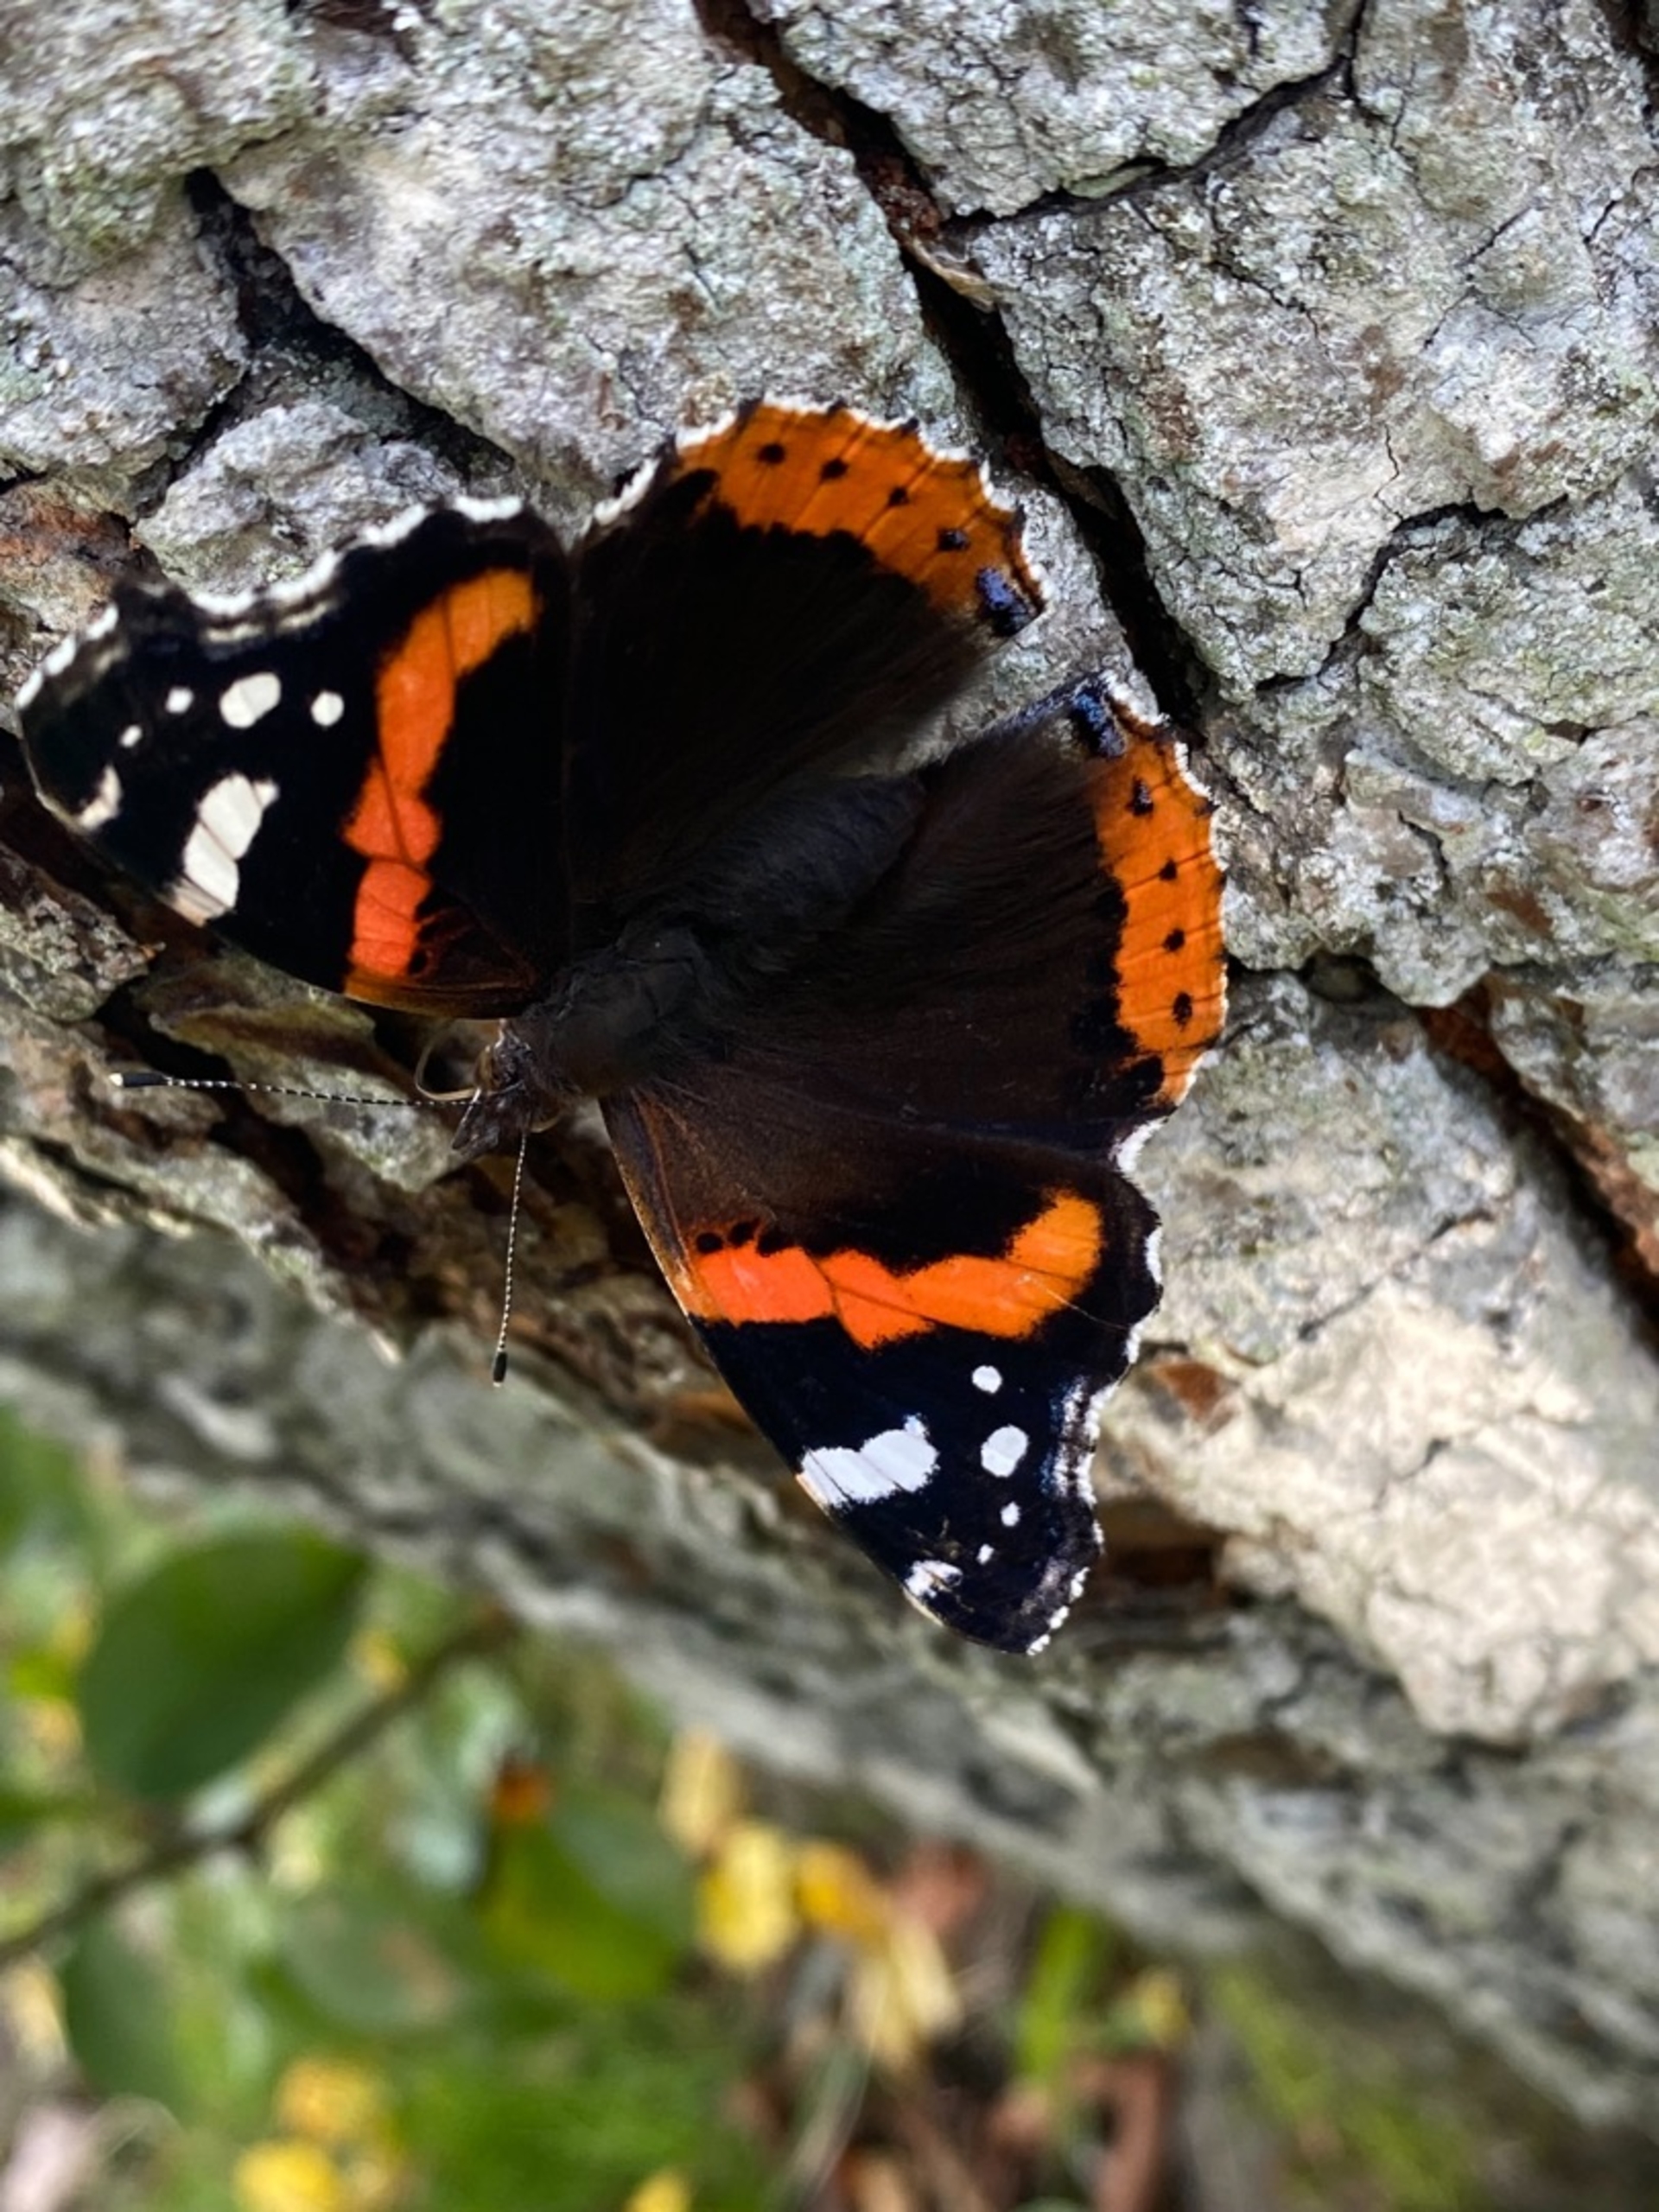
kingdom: Animalia
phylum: Arthropoda
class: Insecta
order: Lepidoptera
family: Nymphalidae
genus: Vanessa
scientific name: Vanessa atalanta
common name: Admiral
